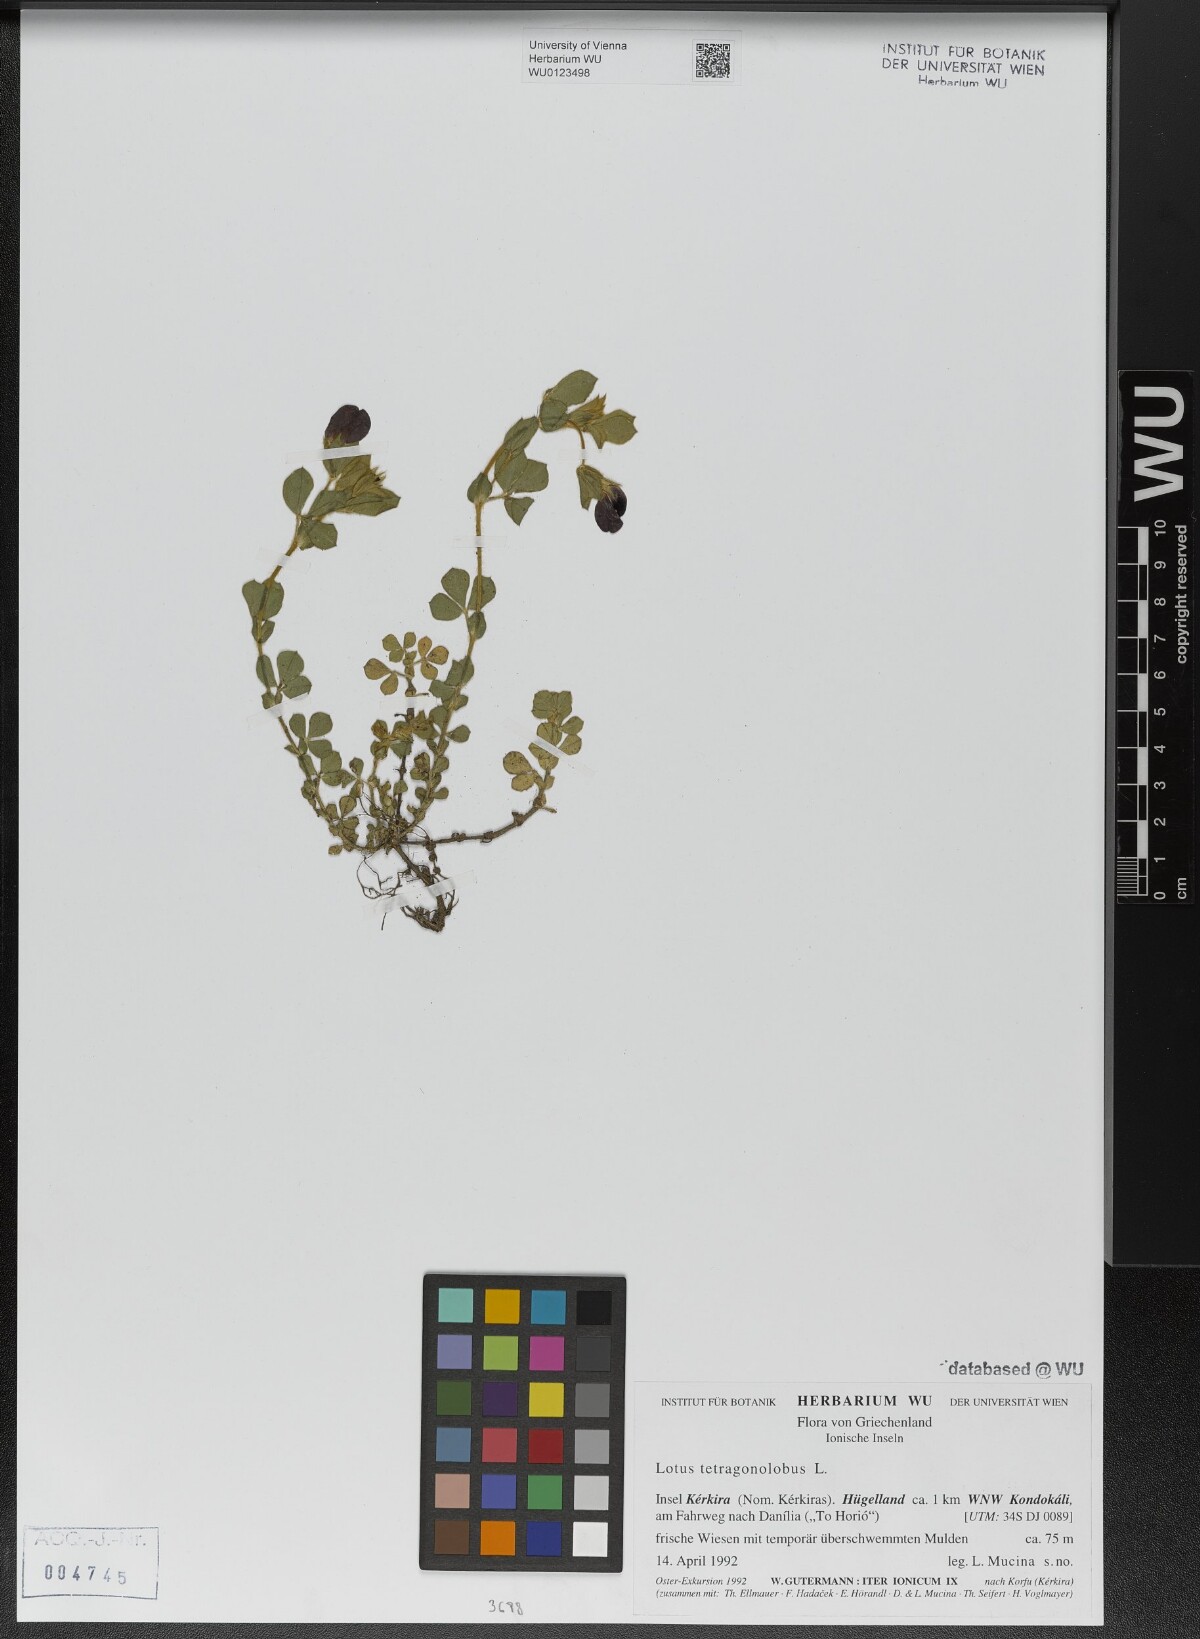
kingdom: Plantae
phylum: Tracheophyta
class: Magnoliopsida
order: Fabales
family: Fabaceae
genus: Lotus
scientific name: Lotus tetragonolobus
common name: Asparagus-pea
